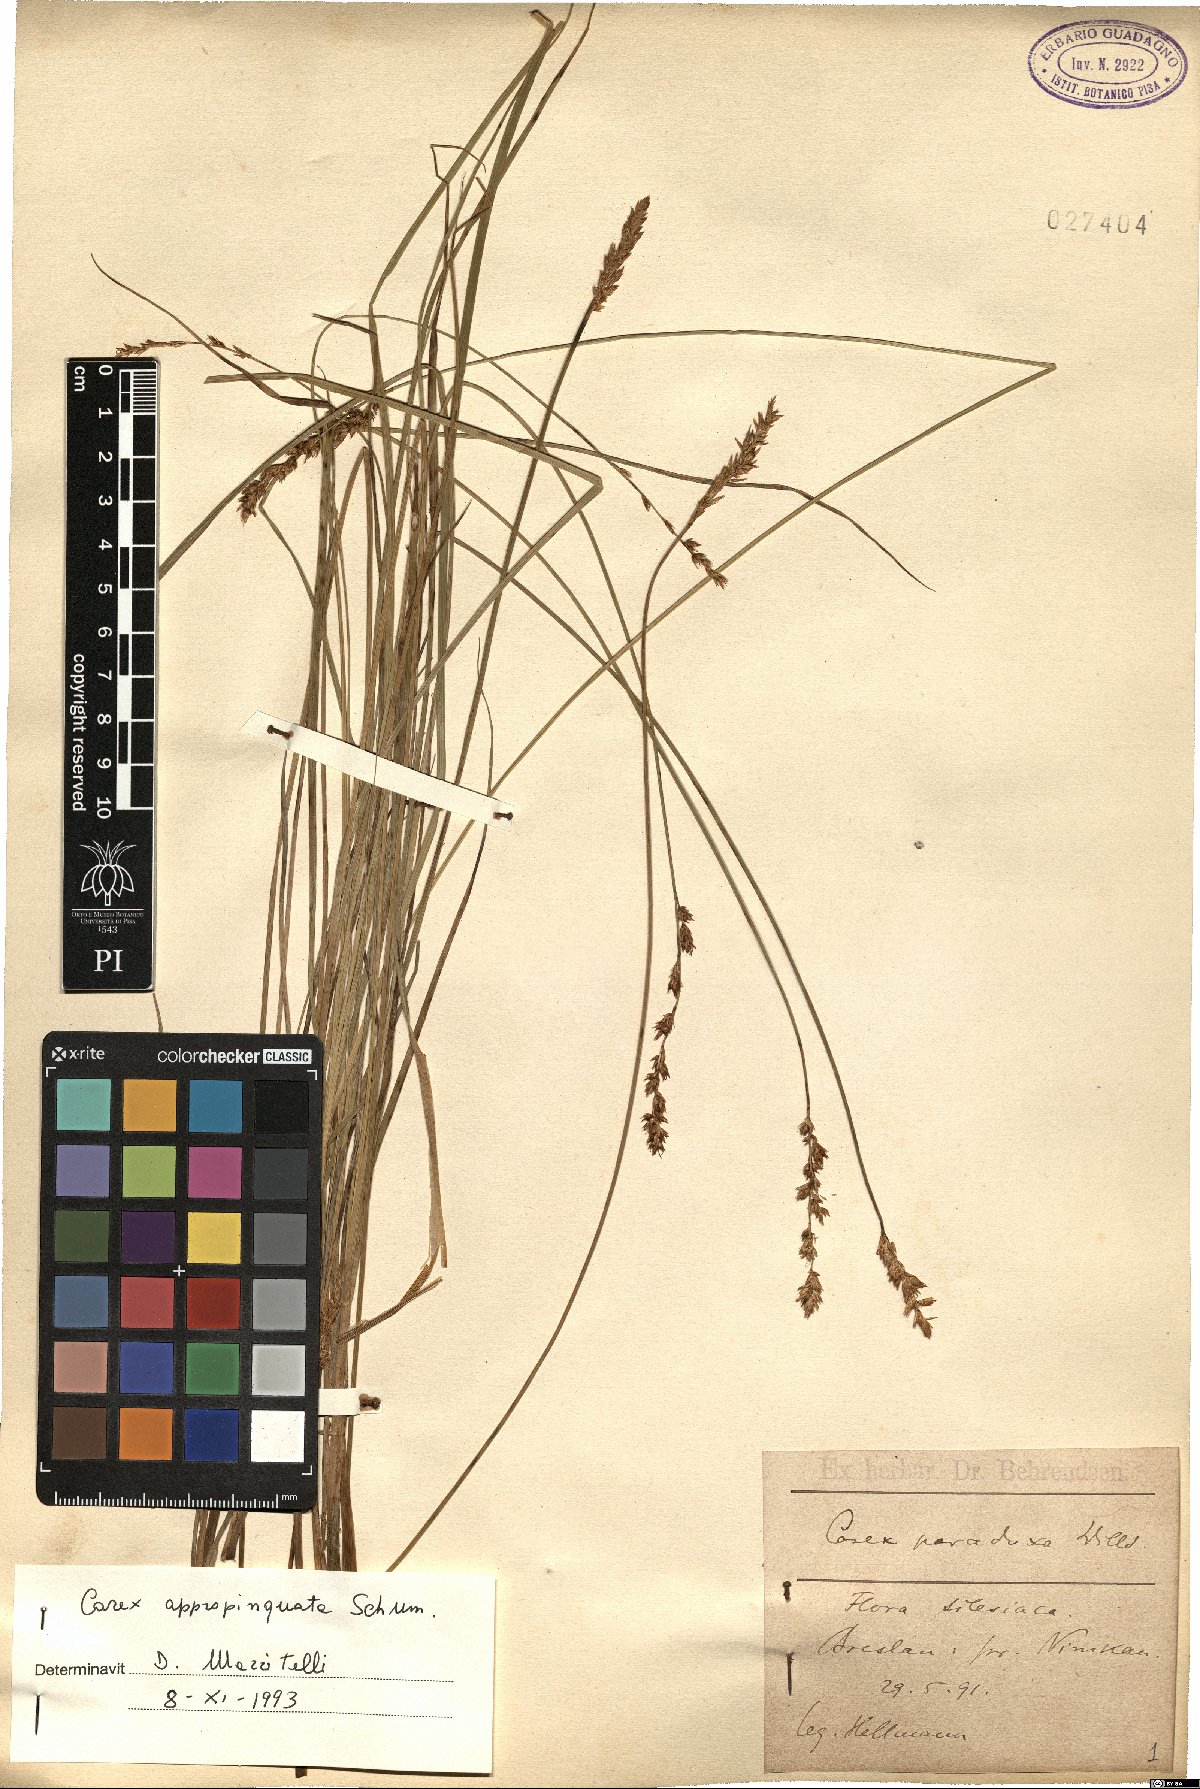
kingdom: Plantae
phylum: Tracheophyta
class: Liliopsida
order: Poales
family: Cyperaceae
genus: Carex
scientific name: Carex appropinquata
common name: Fibrous tussock-sedge
